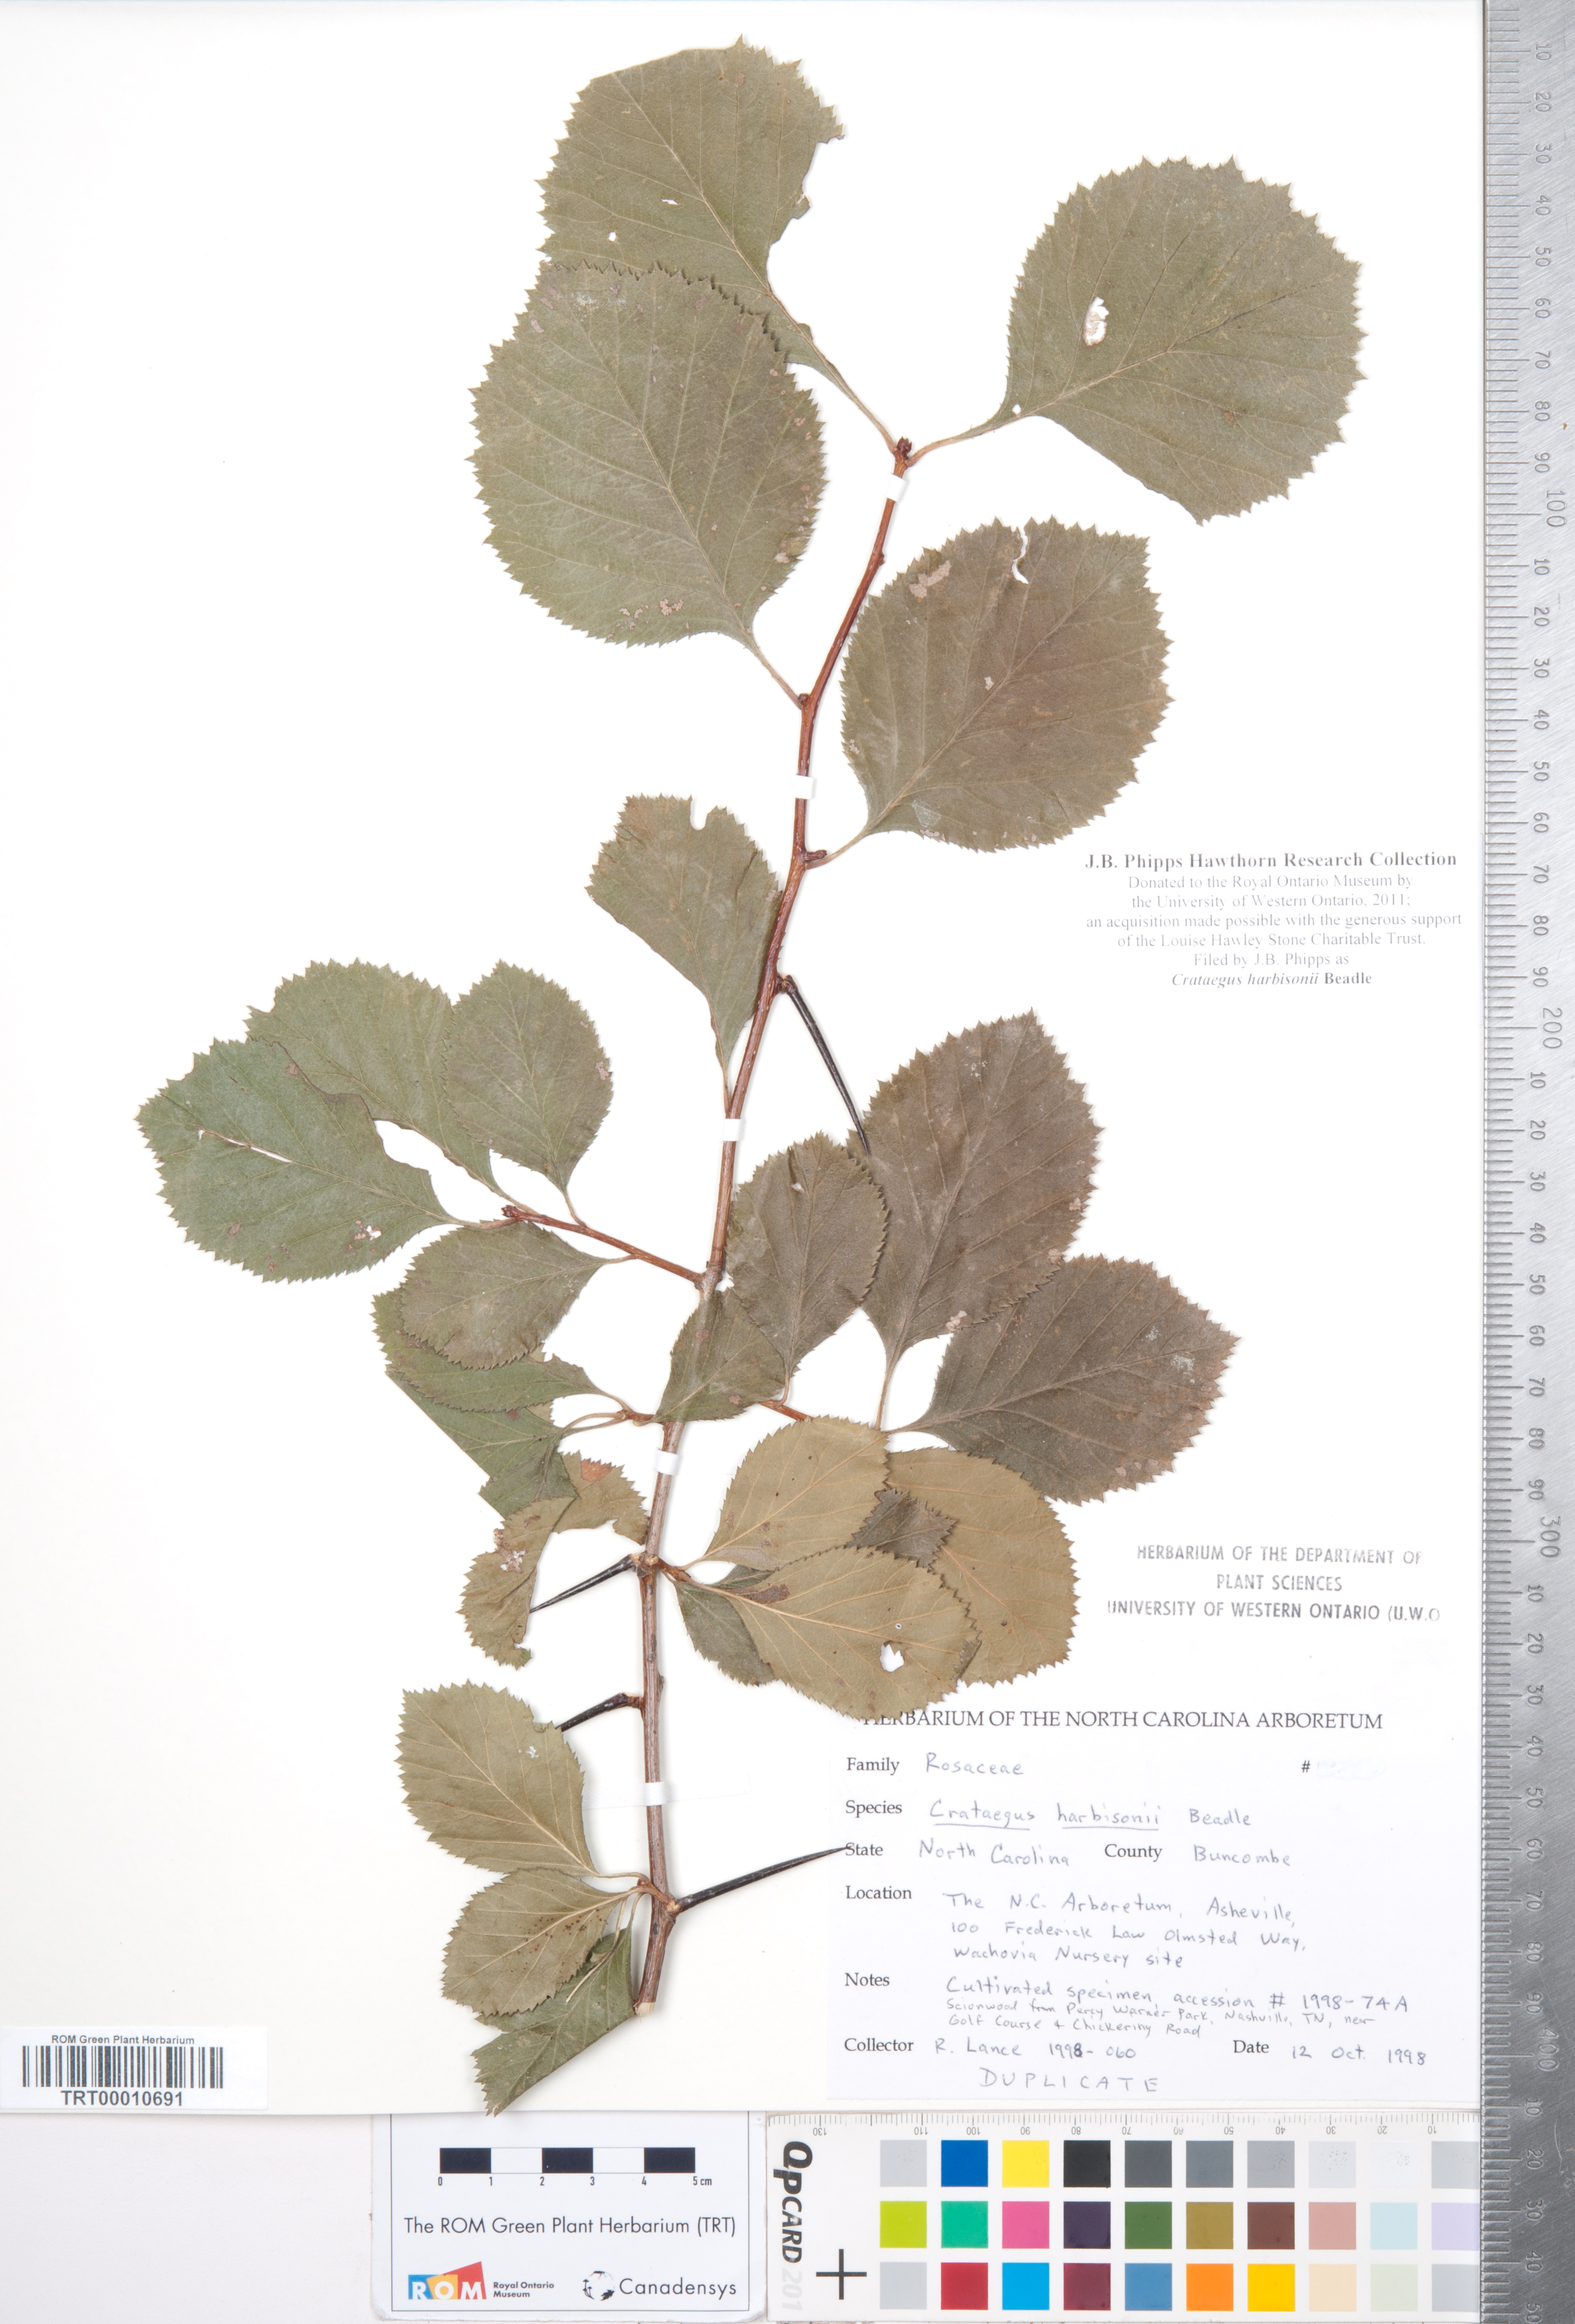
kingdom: Plantae
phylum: Tracheophyta
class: Magnoliopsida
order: Rosales
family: Rosaceae
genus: Crataegus
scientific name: Crataegus harbisonii
